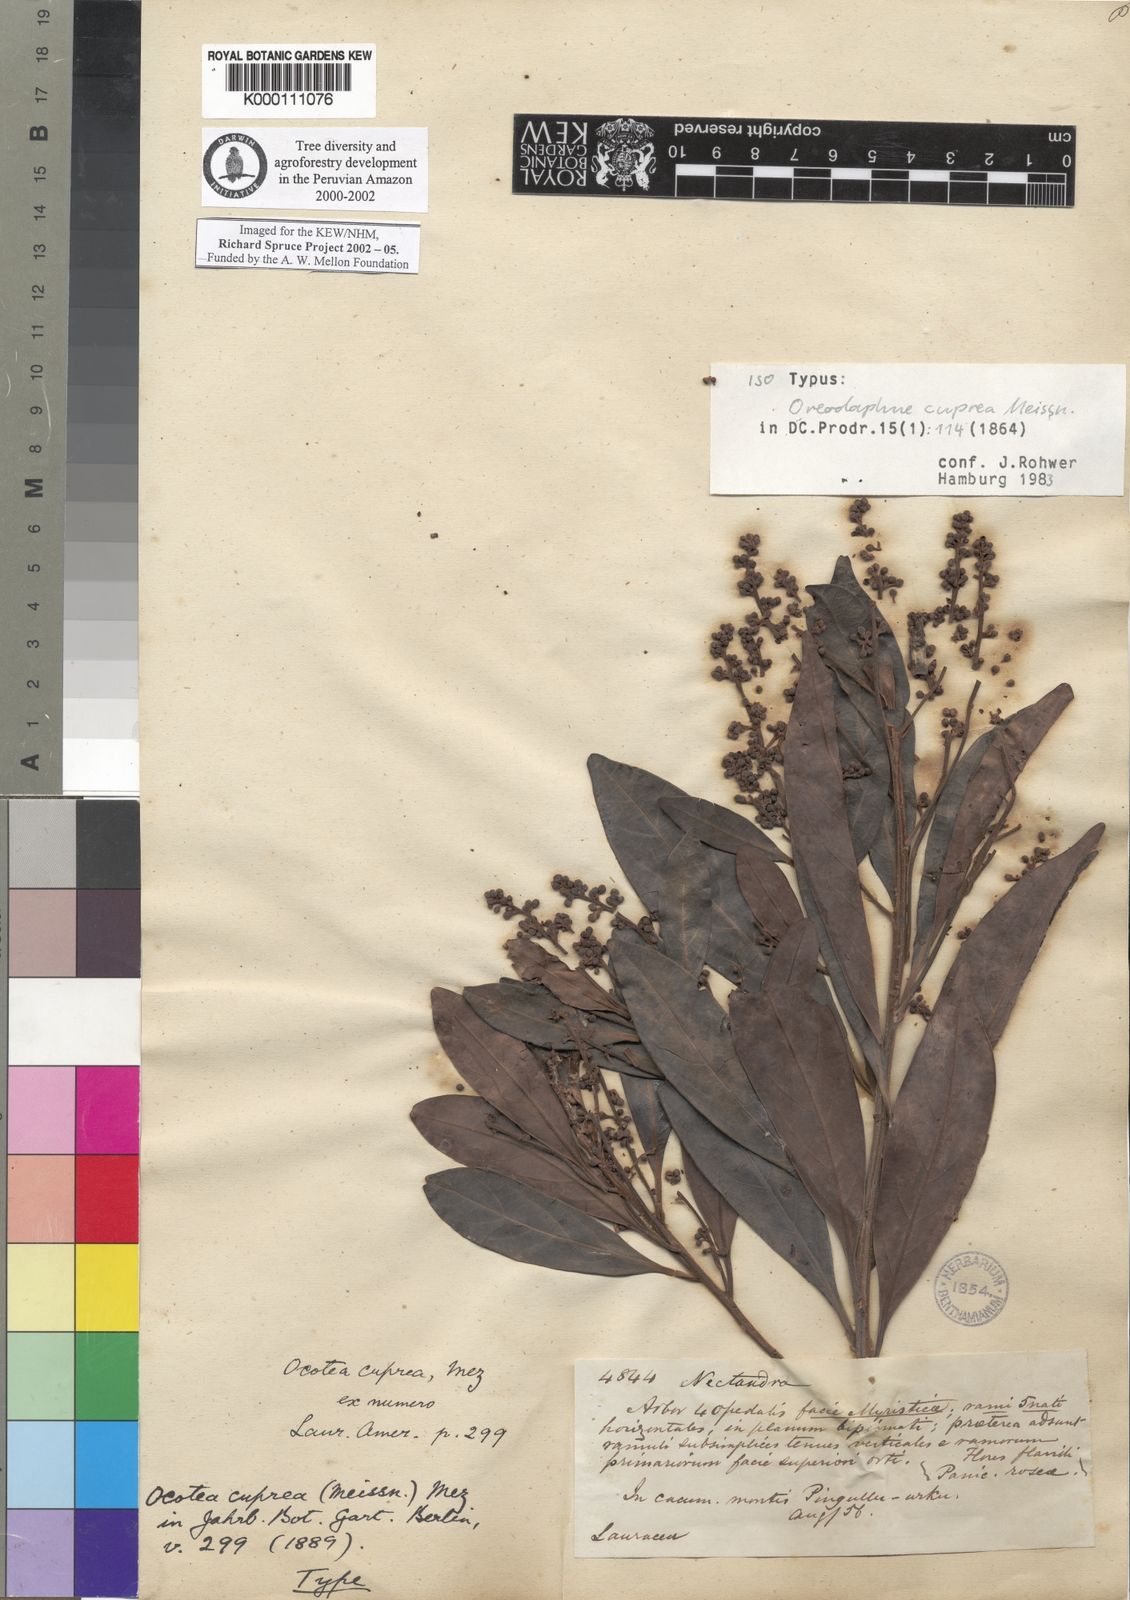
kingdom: Plantae
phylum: Tracheophyta
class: Magnoliopsida
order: Laurales
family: Lauraceae
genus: Ocotea
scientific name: Ocotea oblonga
